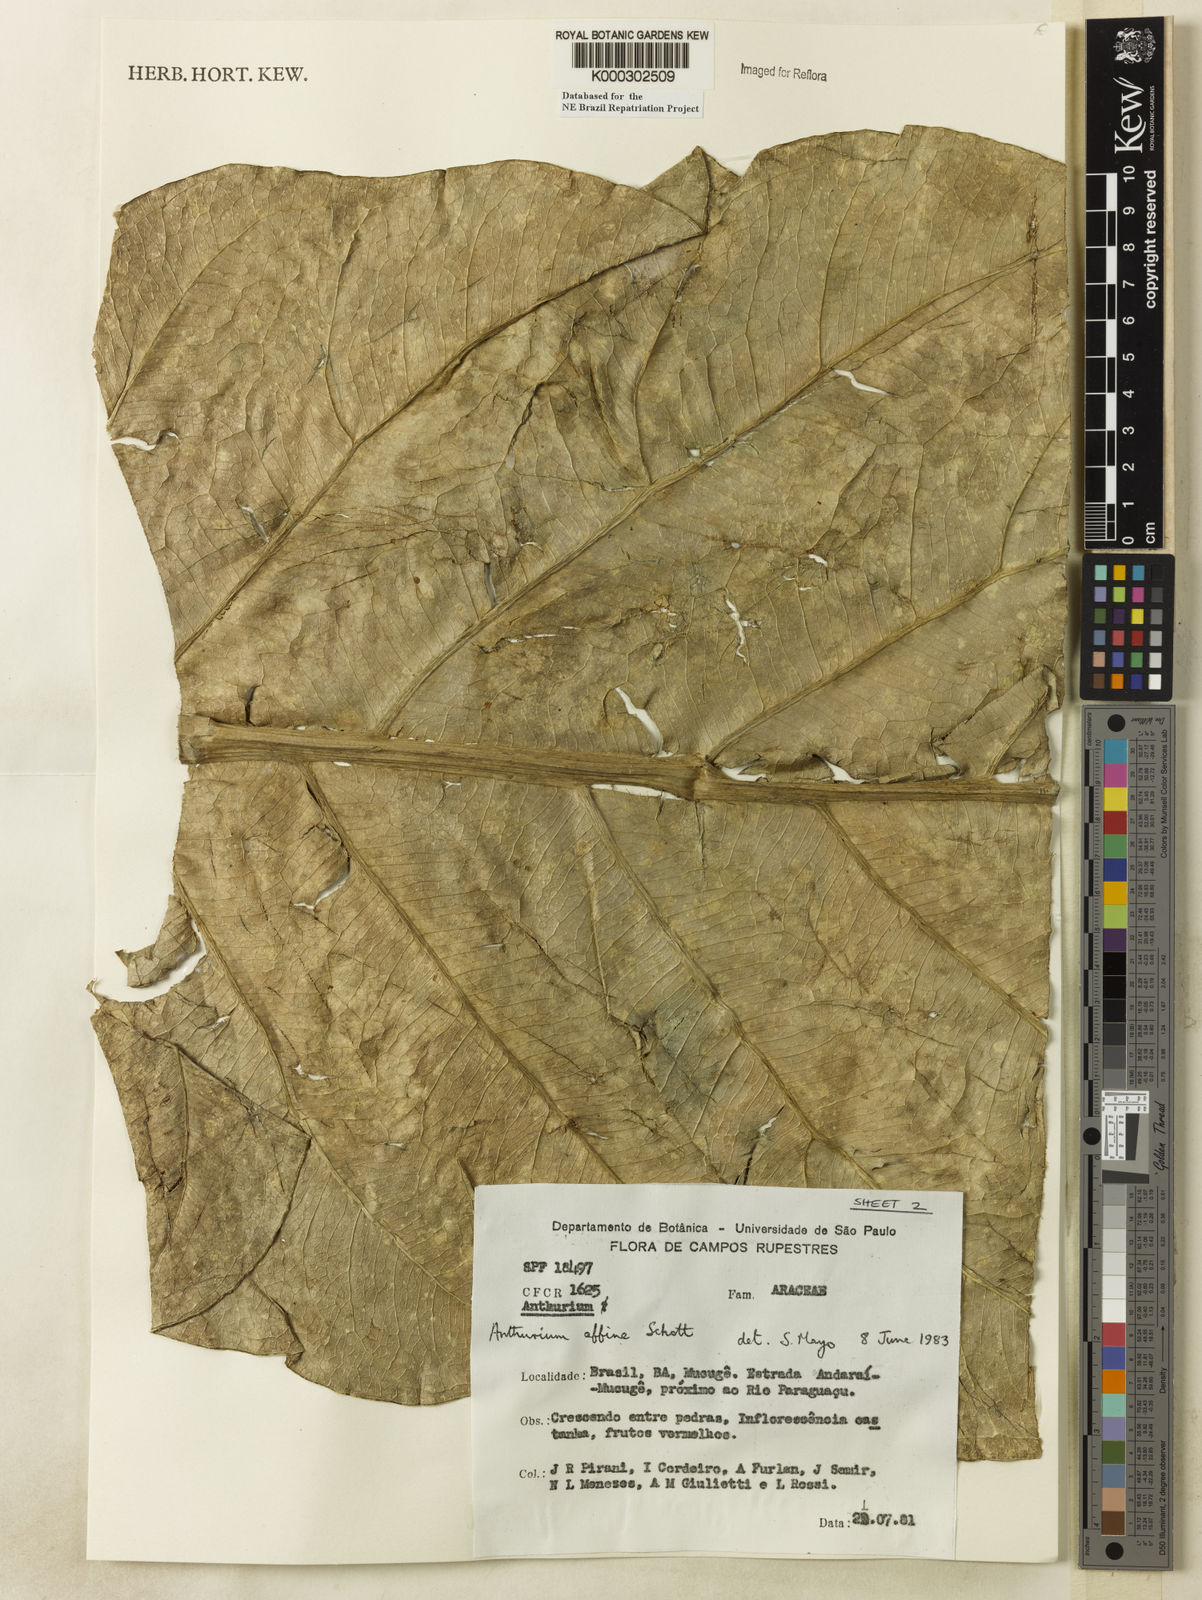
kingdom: Plantae
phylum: Tracheophyta
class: Liliopsida
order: Alismatales
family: Araceae
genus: Anthurium
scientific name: Anthurium affine
